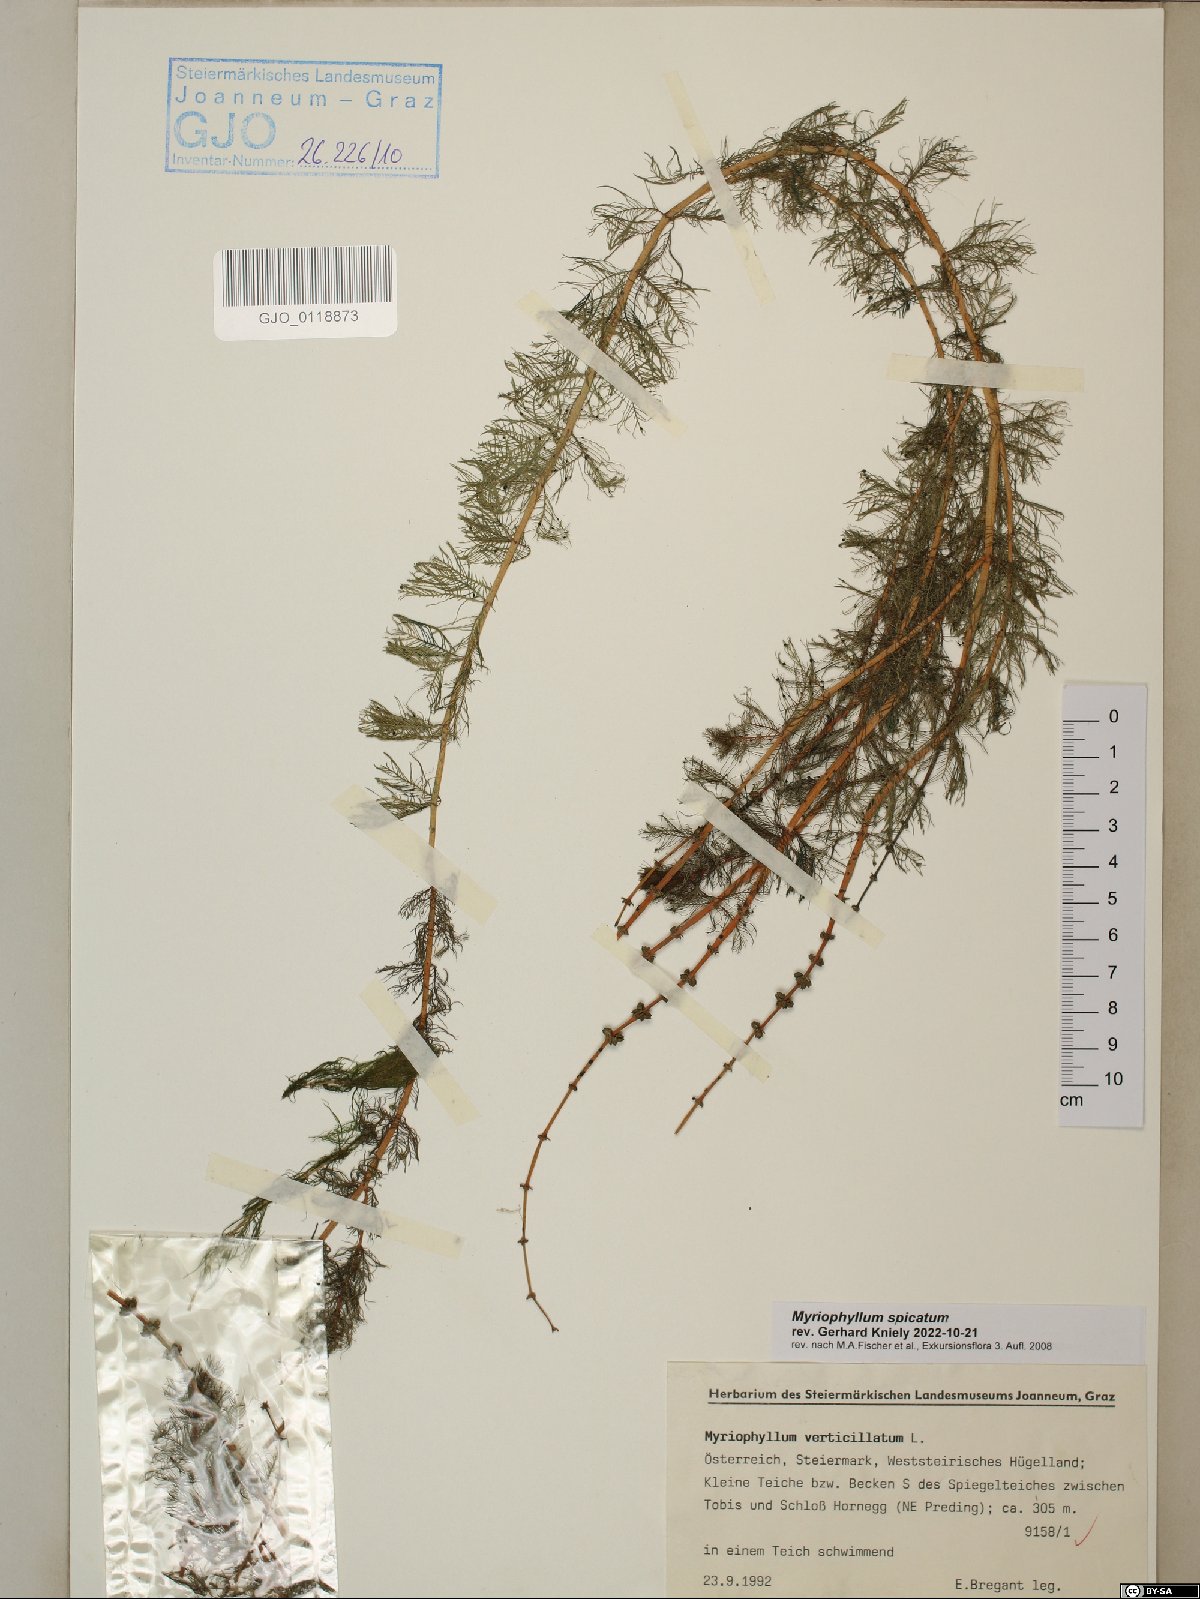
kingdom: Plantae
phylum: Tracheophyta
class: Magnoliopsida
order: Saxifragales
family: Haloragaceae
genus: Myriophyllum
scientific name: Myriophyllum spicatum
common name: Spiked water-milfoil
